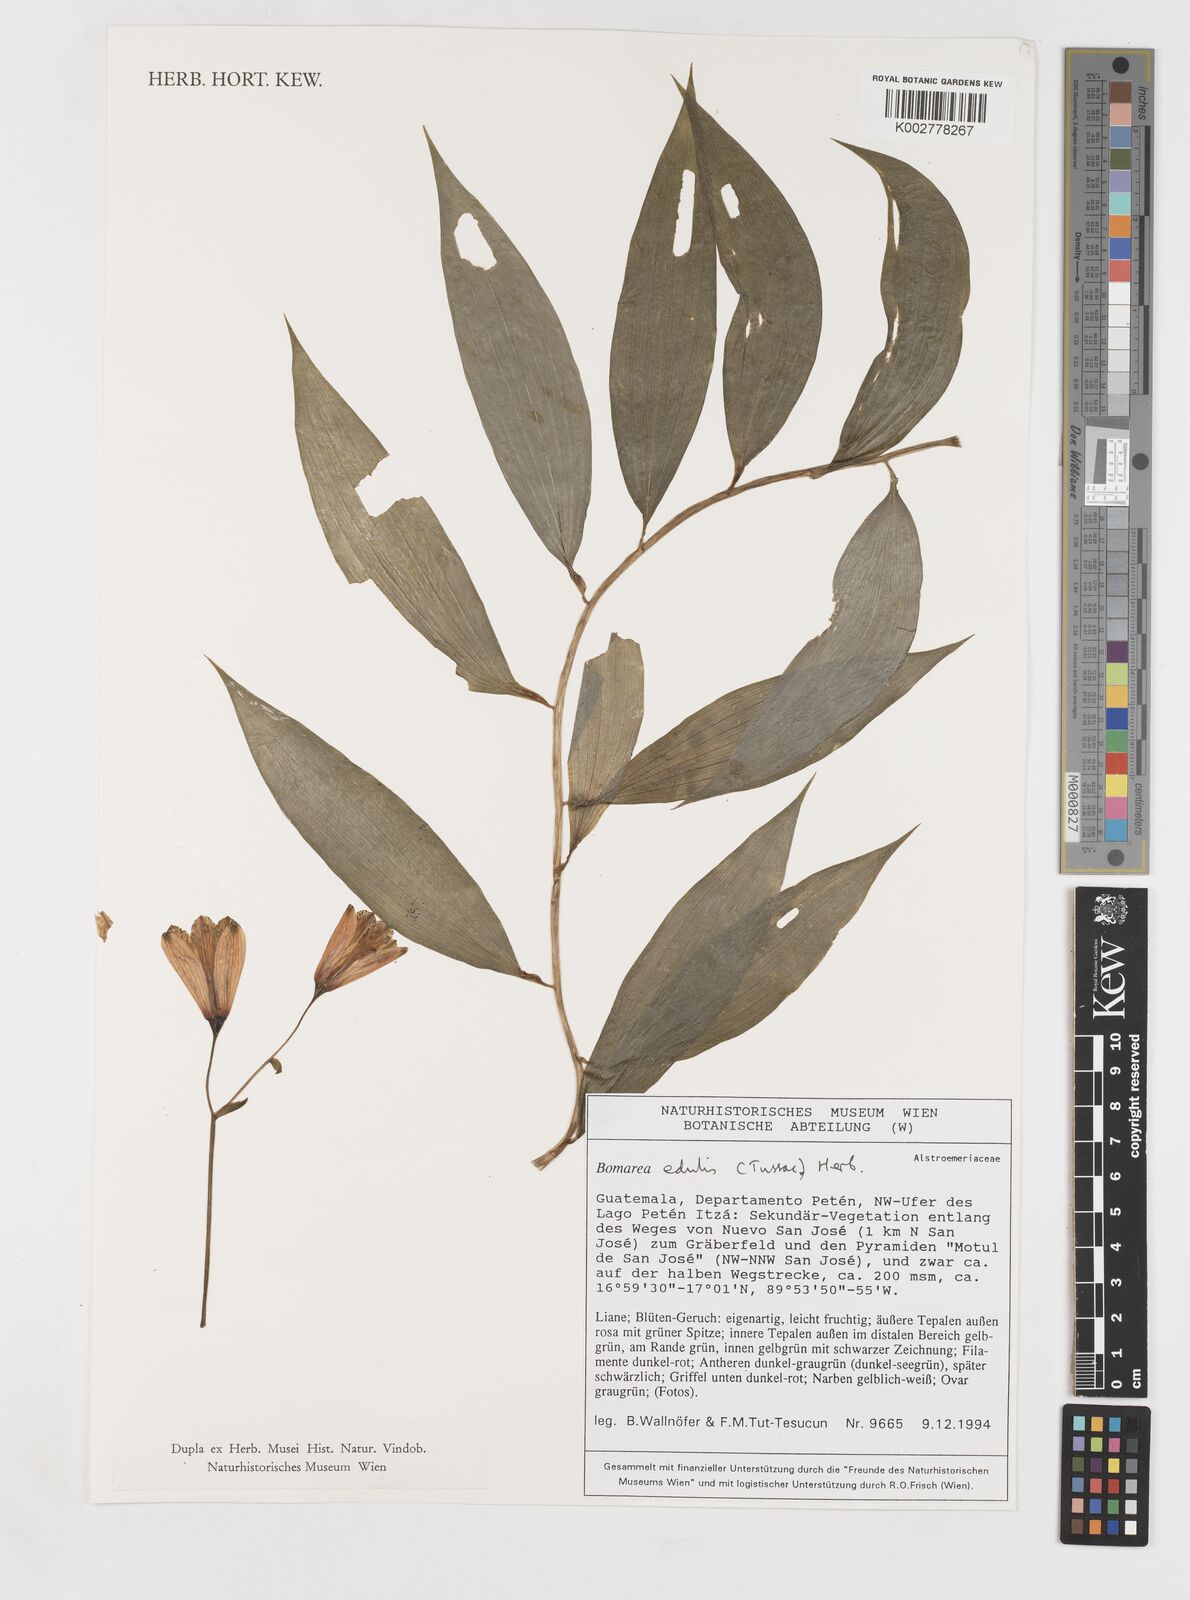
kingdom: Plantae
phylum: Tracheophyta
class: Liliopsida
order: Liliales
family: Alstroemeriaceae
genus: Bomarea
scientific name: Bomarea edulis
